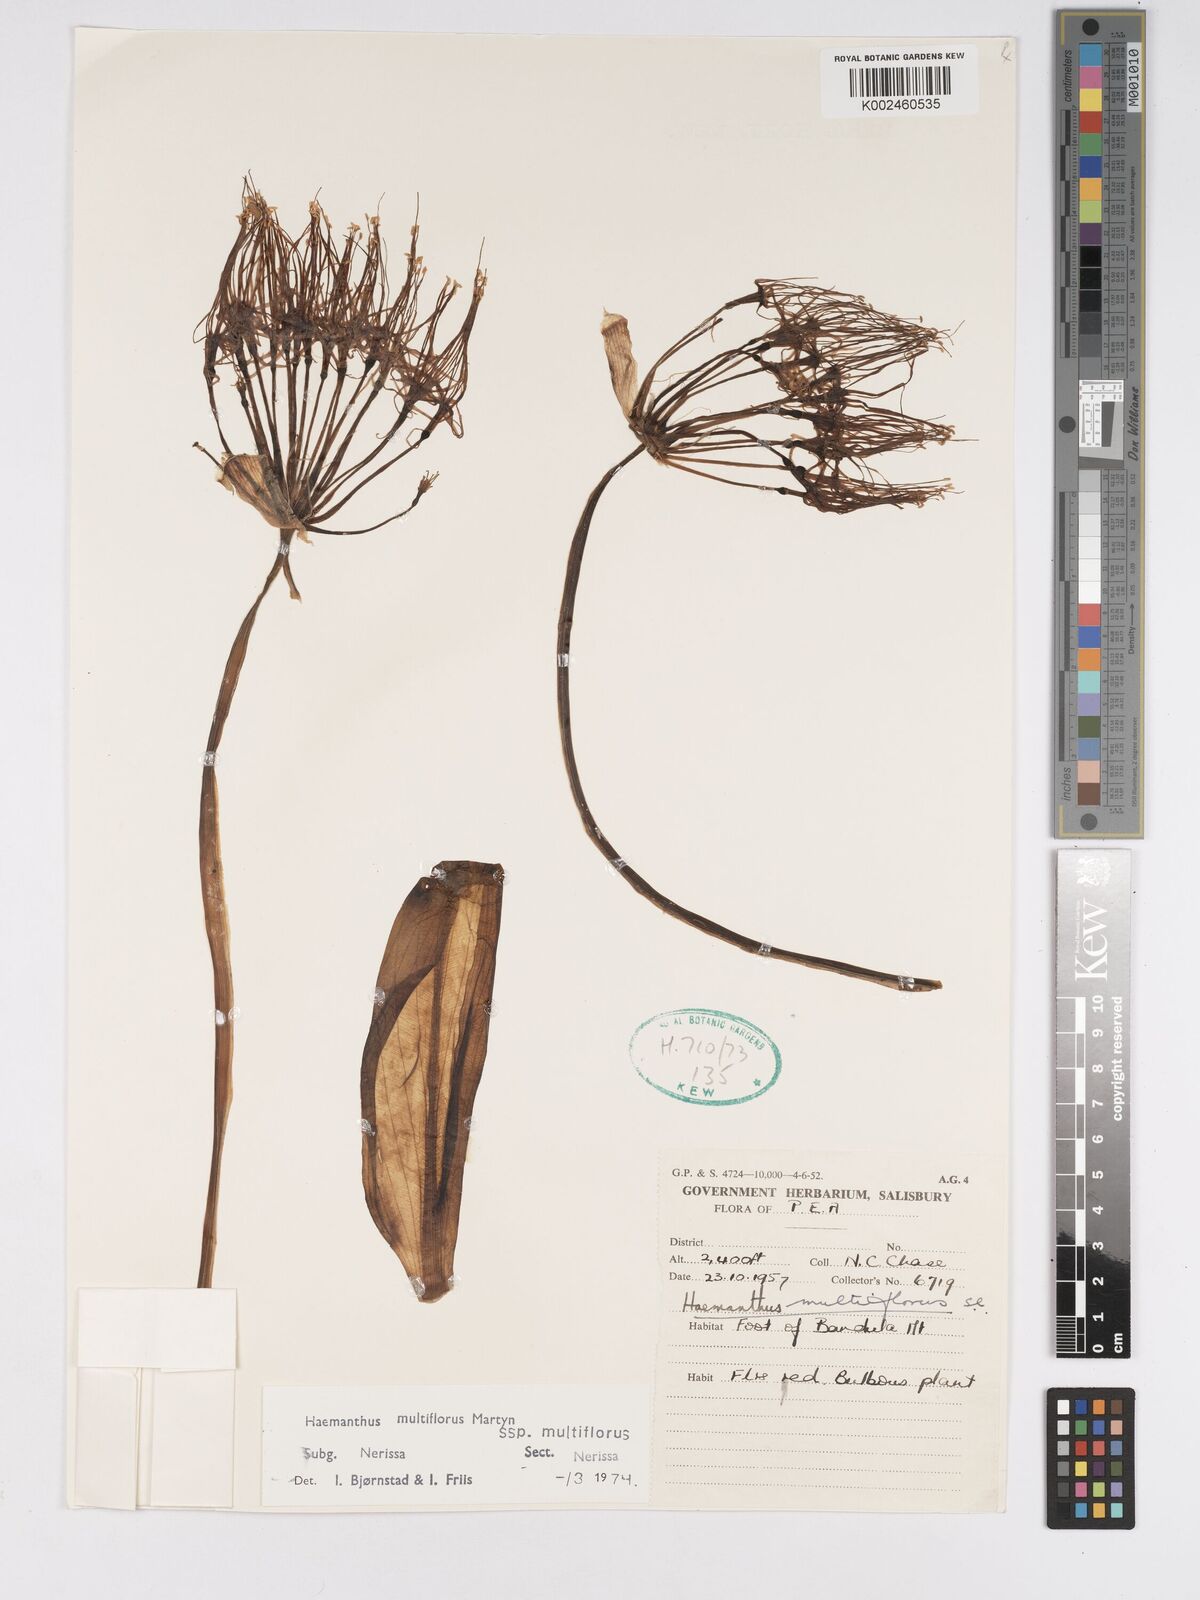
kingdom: Plantae
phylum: Tracheophyta
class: Liliopsida
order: Asparagales
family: Amaryllidaceae
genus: Scadoxus
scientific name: Scadoxus multiflorus
